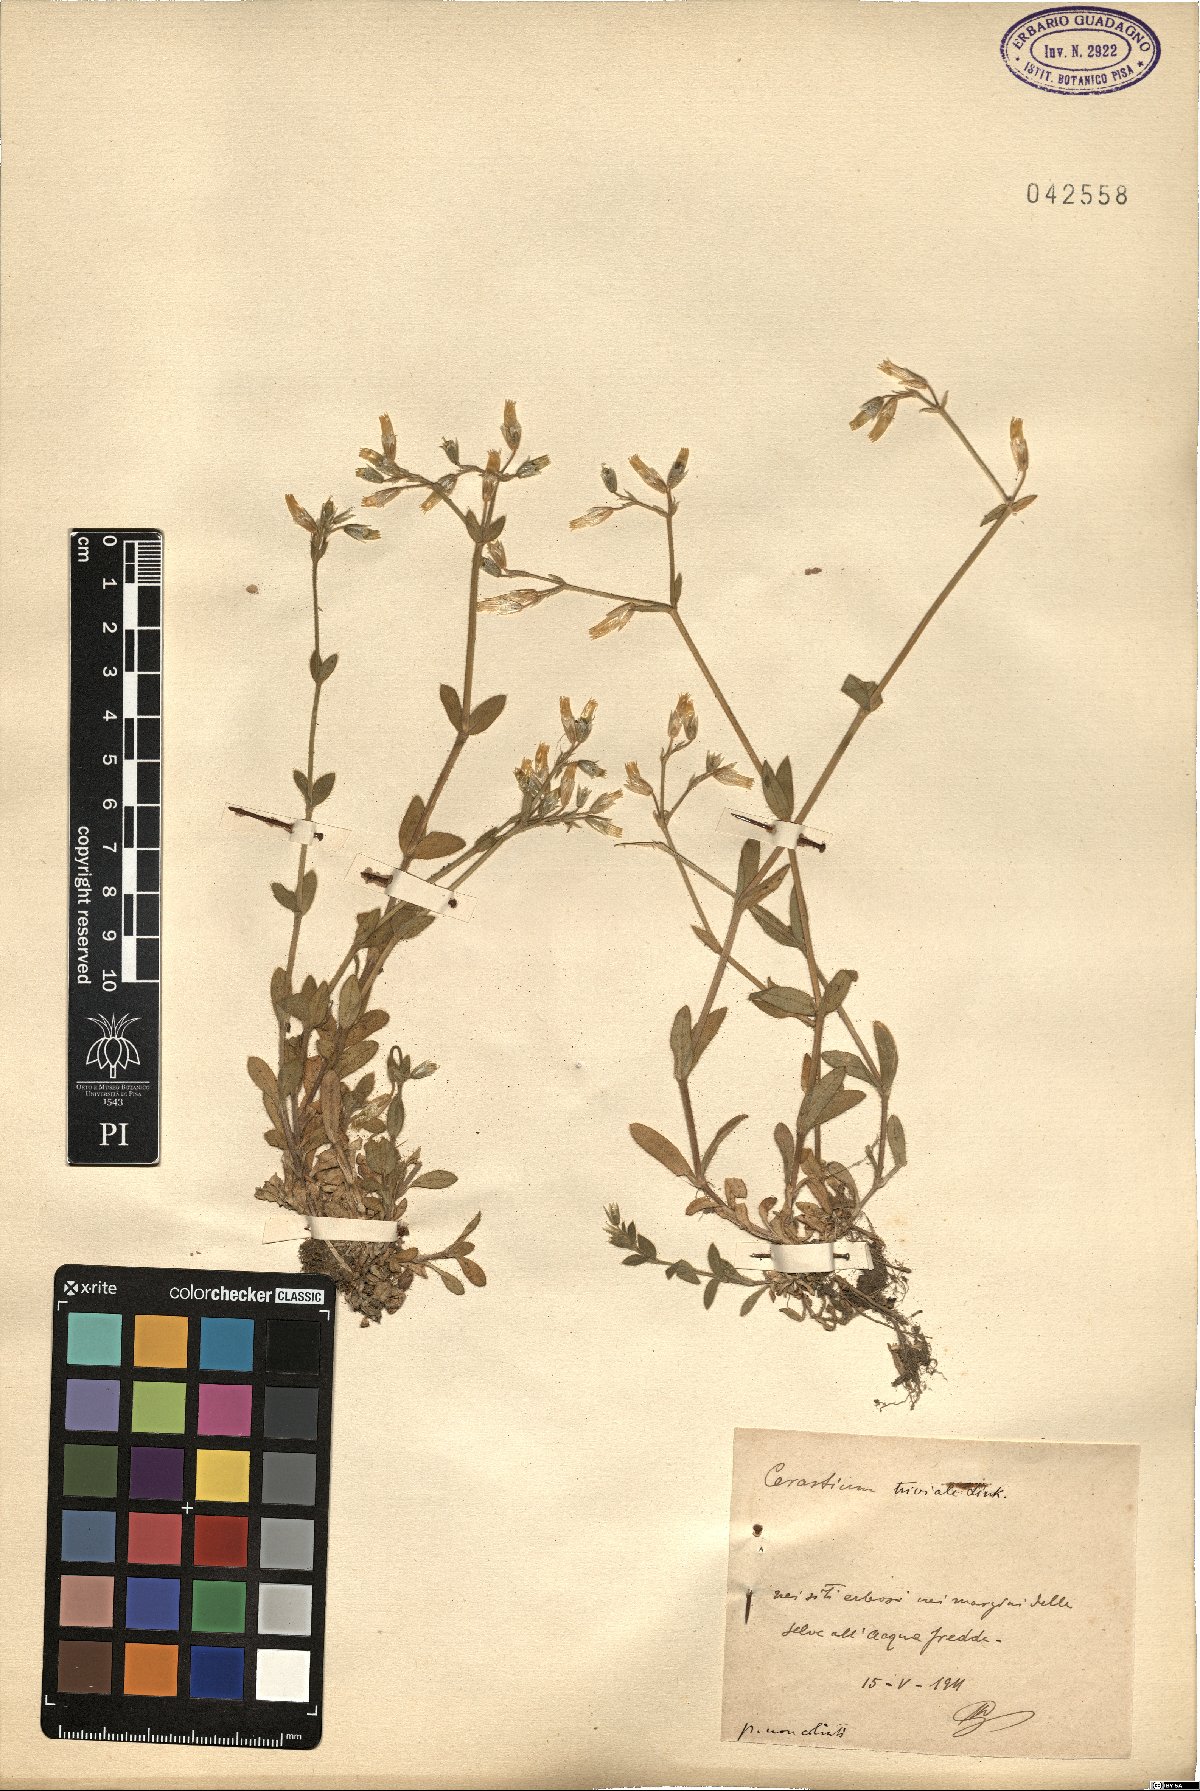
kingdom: Plantae
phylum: Tracheophyta
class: Magnoliopsida
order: Caryophyllales
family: Caryophyllaceae
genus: Cerastium
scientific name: Cerastium glomeratum
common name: Sticky chickweed
